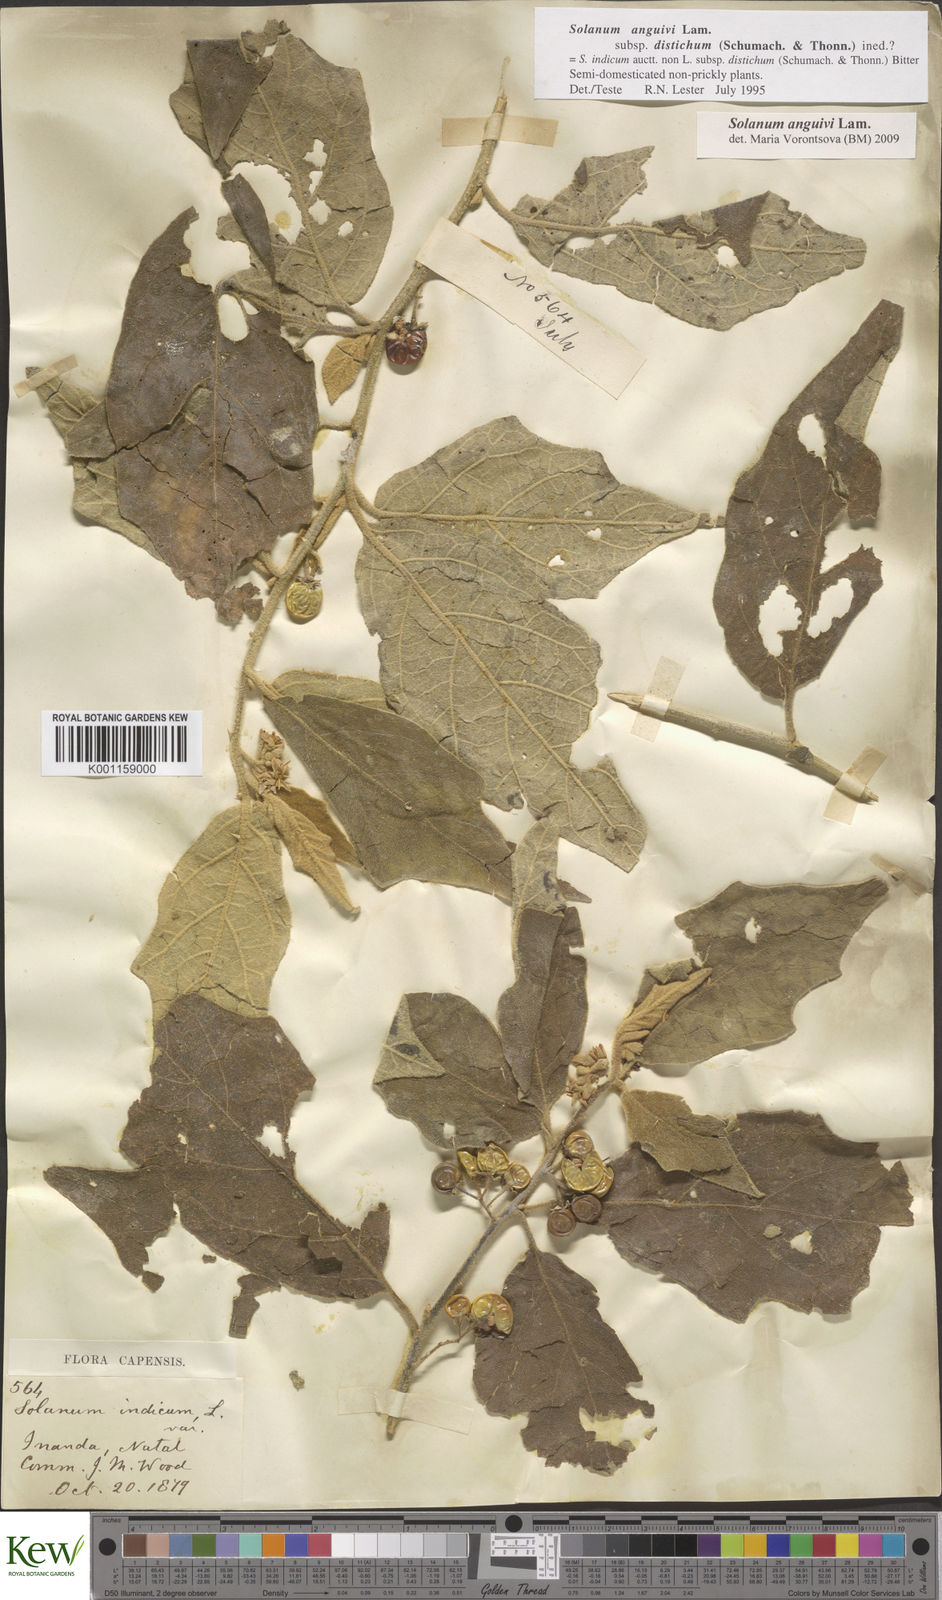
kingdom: Plantae
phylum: Tracheophyta
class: Magnoliopsida
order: Solanales
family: Solanaceae
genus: Solanum
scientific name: Solanum anguivi
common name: Forest bitterberry
